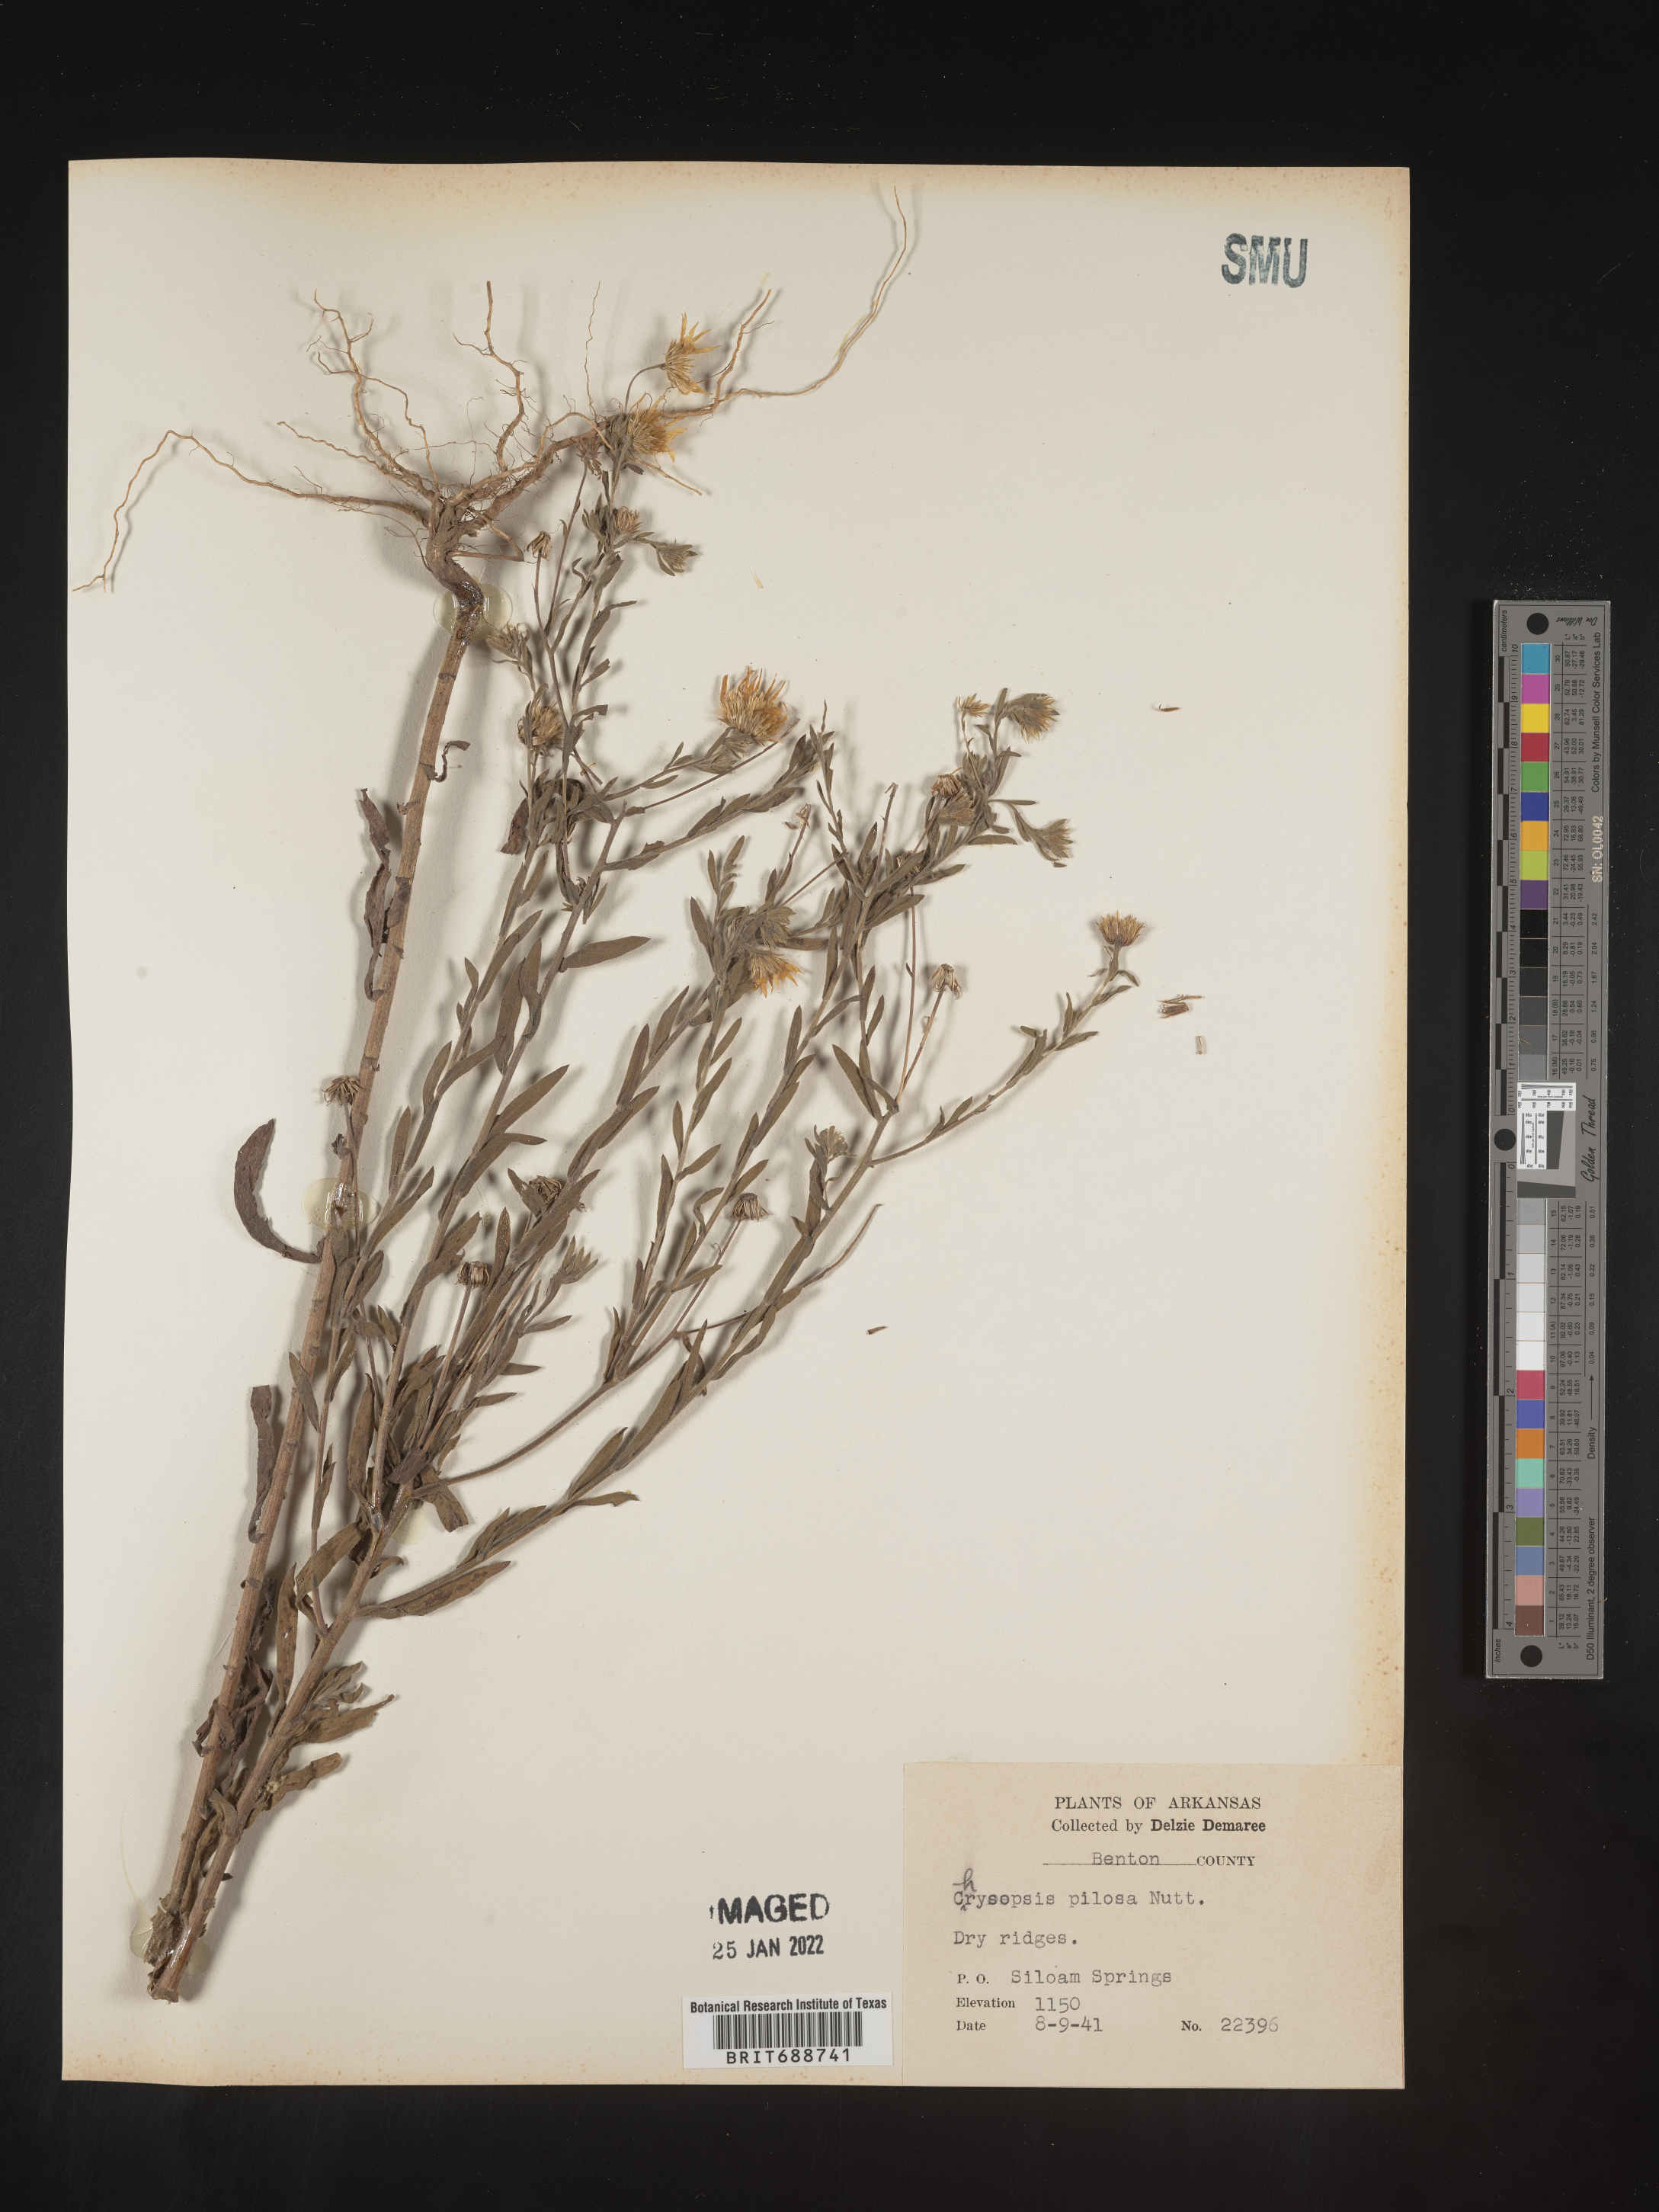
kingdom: Plantae
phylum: Tracheophyta
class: Magnoliopsida
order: Asterales
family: Asteraceae
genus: Bradburia
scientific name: Bradburia pilosa
